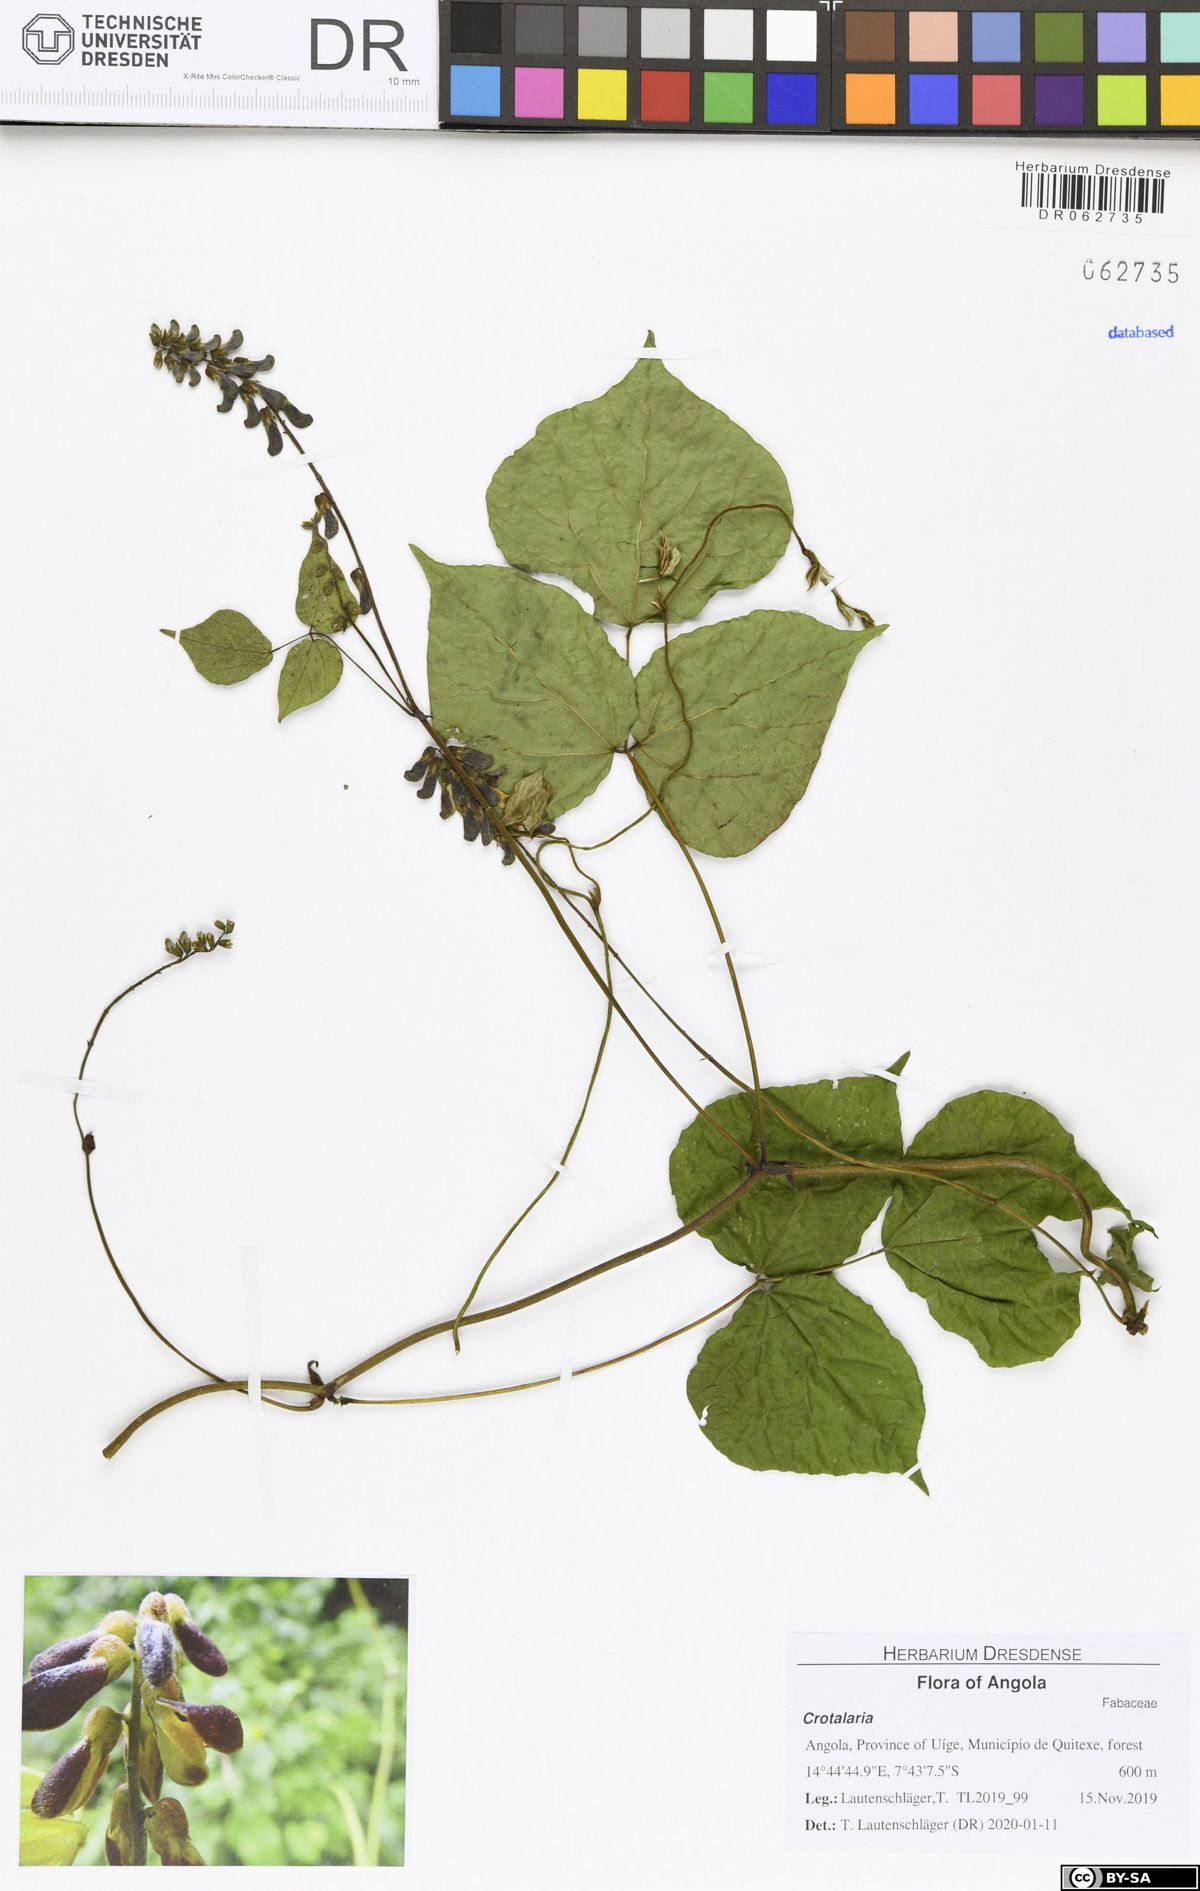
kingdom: Plantae
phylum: Tracheophyta
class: Magnoliopsida
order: Fabales
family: Fabaceae
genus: Crotalaria
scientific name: Crotalaria
